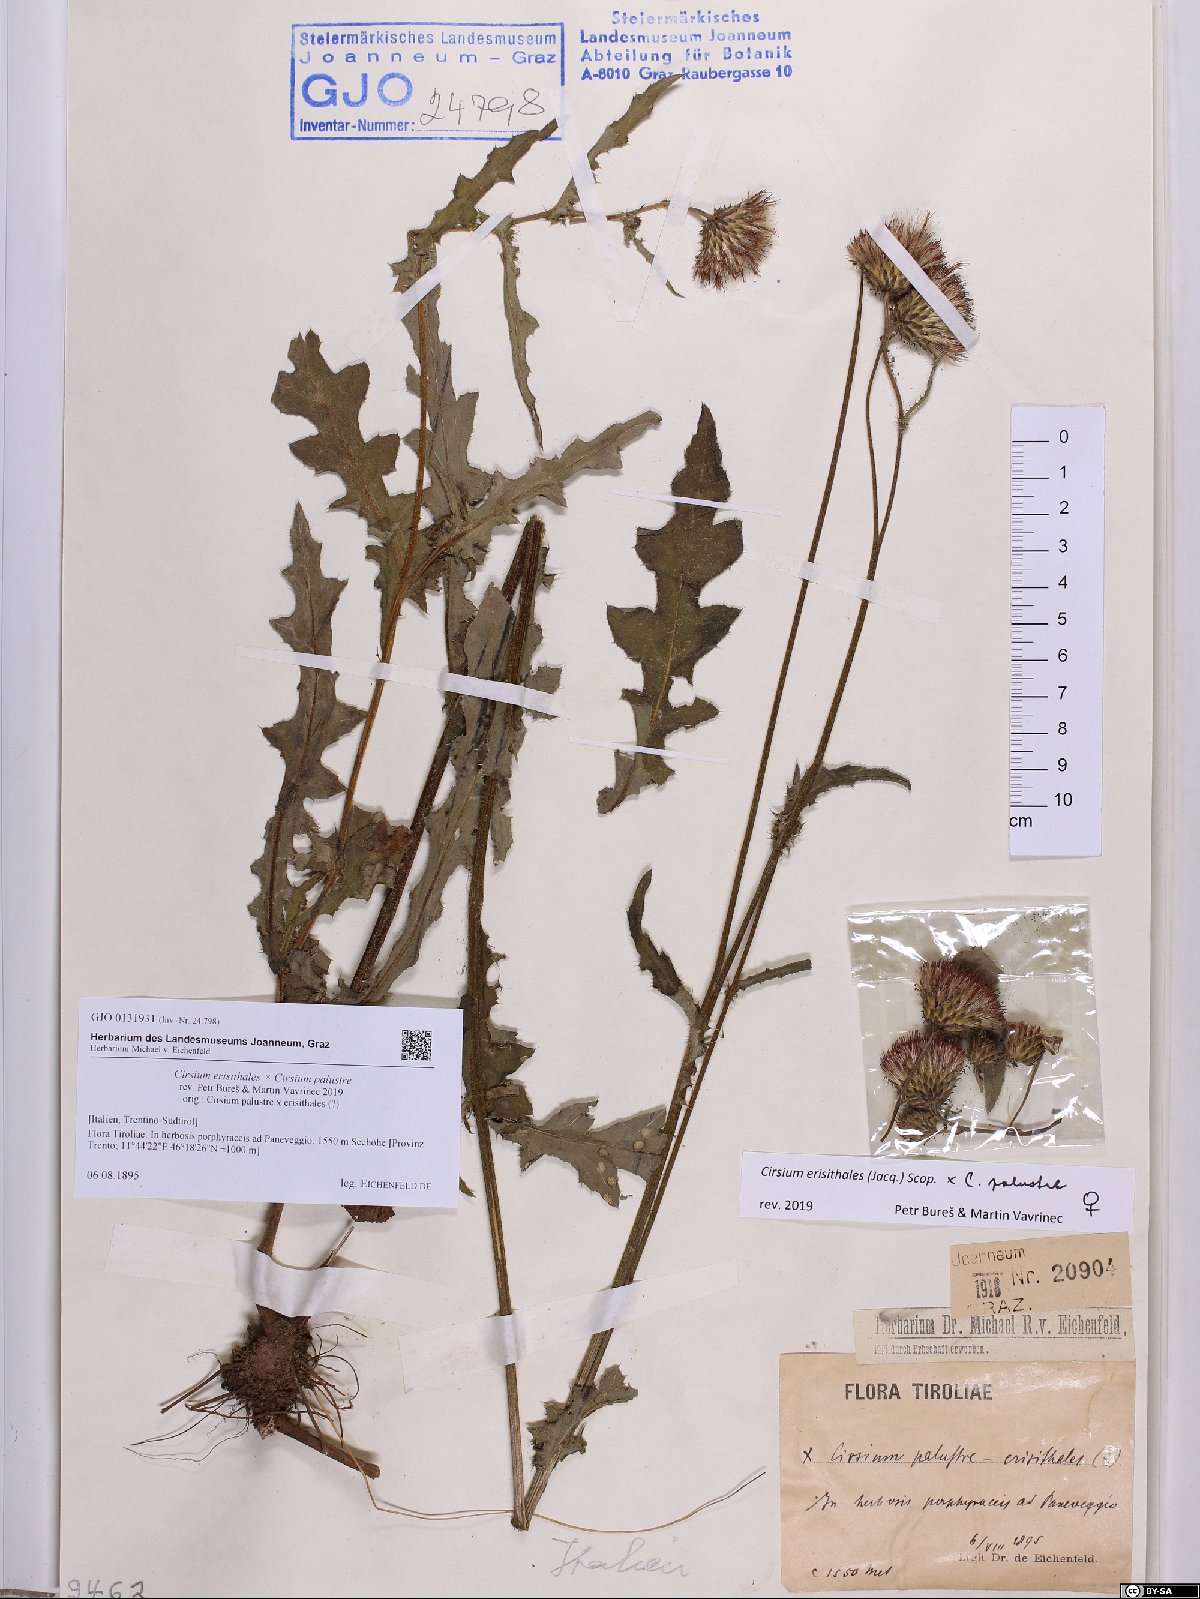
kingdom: Plantae
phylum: Tracheophyta
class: Magnoliopsida
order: Asterales
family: Asteraceae
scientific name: Asteraceae
